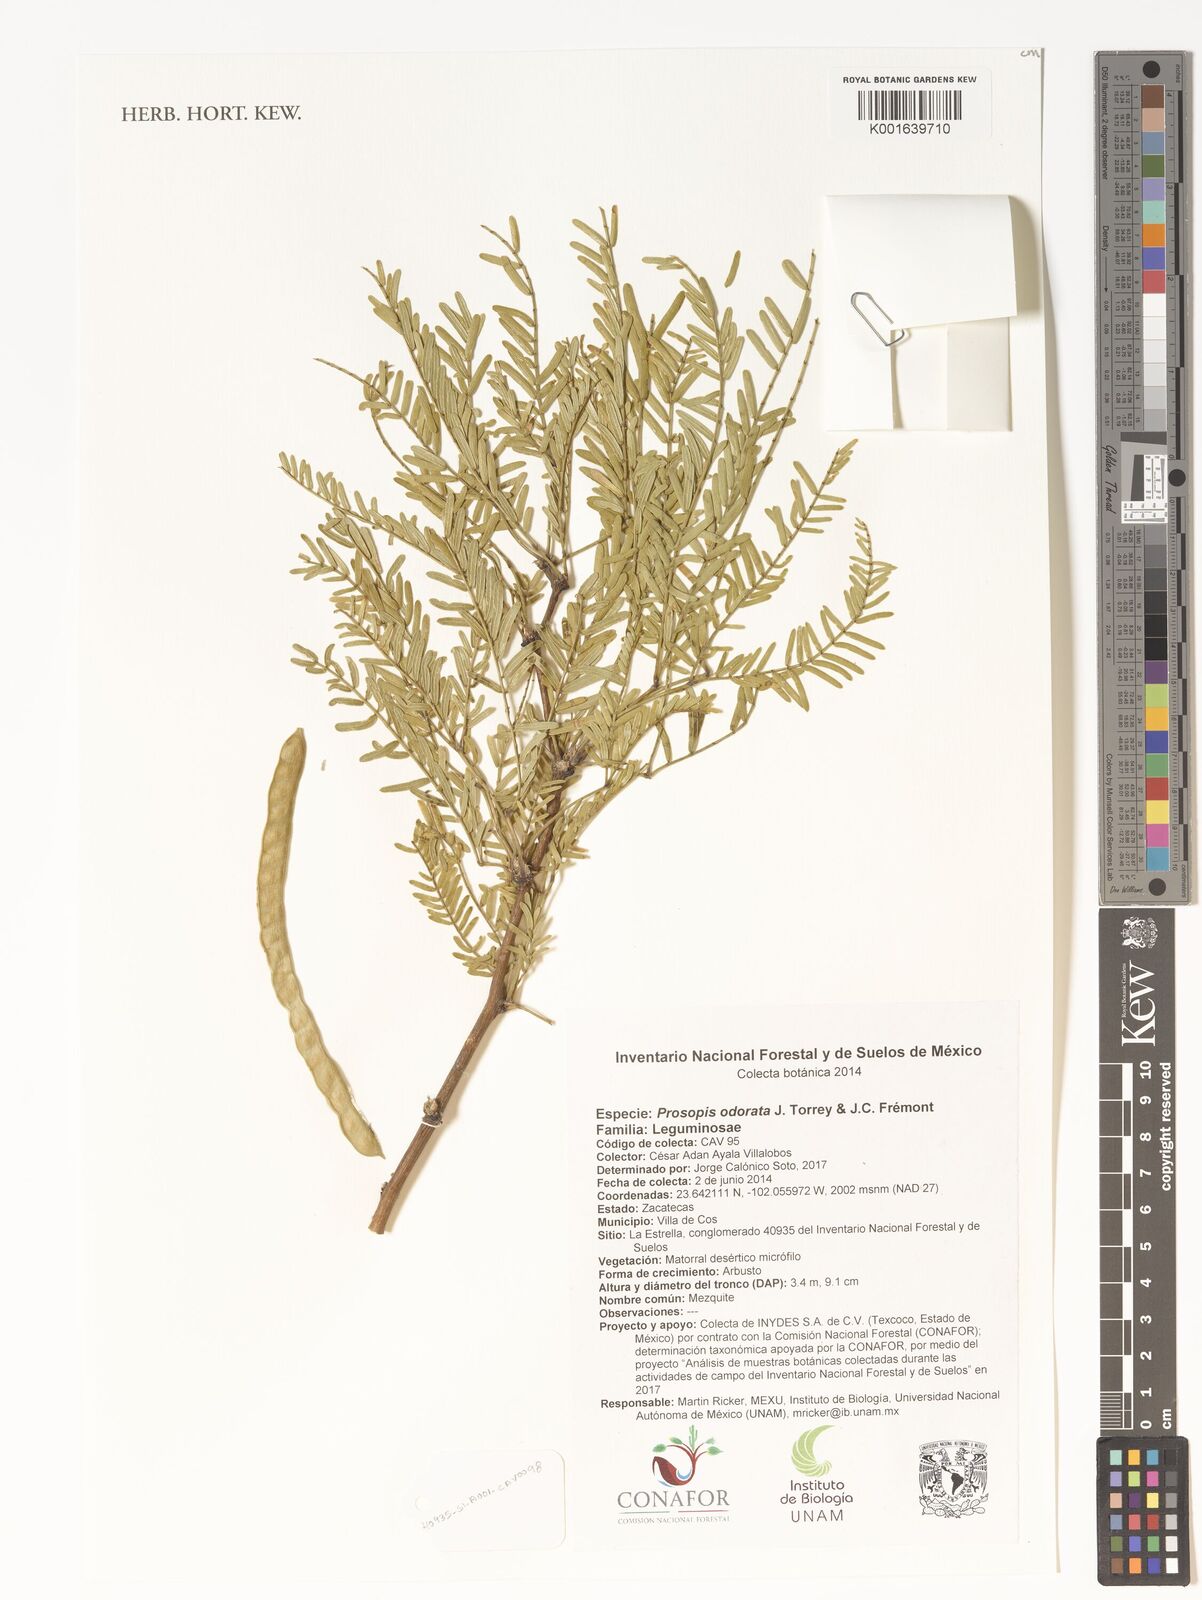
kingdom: Plantae
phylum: Tracheophyta
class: Magnoliopsida
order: Fabales
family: Fabaceae
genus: Prosopis
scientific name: Prosopis pubescens
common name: Screw-bean
